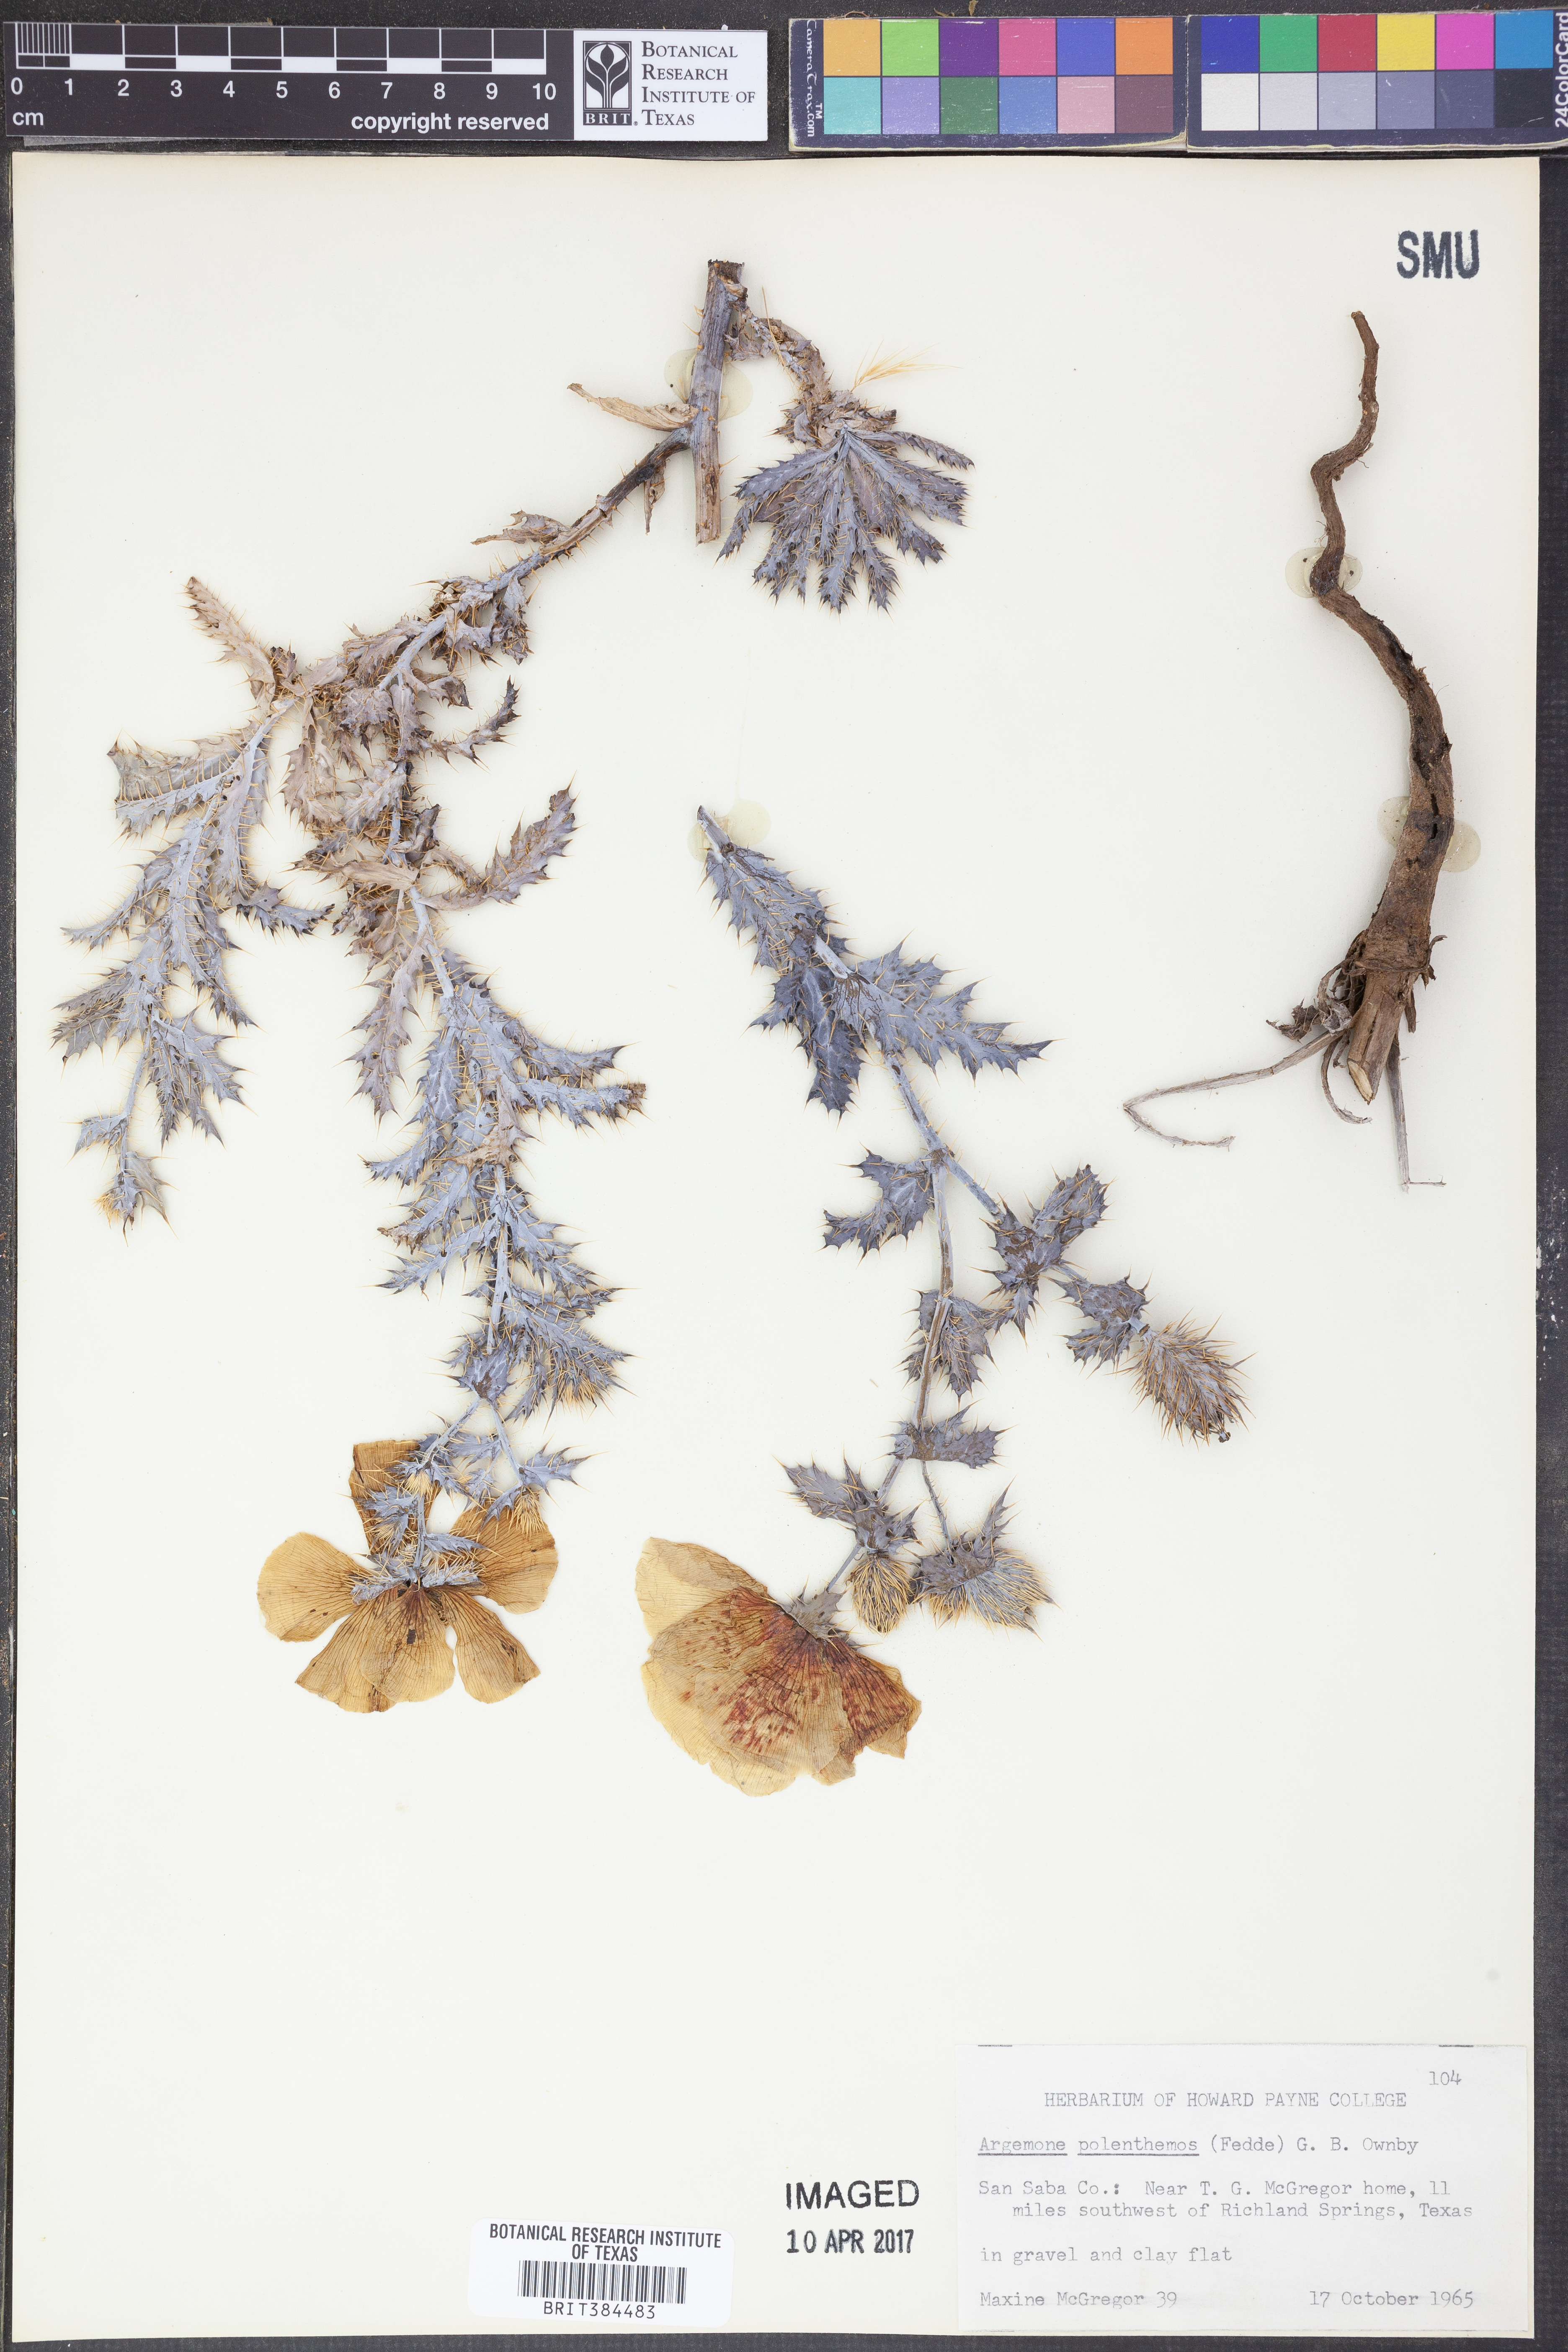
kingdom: Plantae
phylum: Tracheophyta
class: Magnoliopsida
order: Ranunculales
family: Papaveraceae
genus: Argemone
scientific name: Argemone polyanthemos
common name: Plains prickly-poppy
